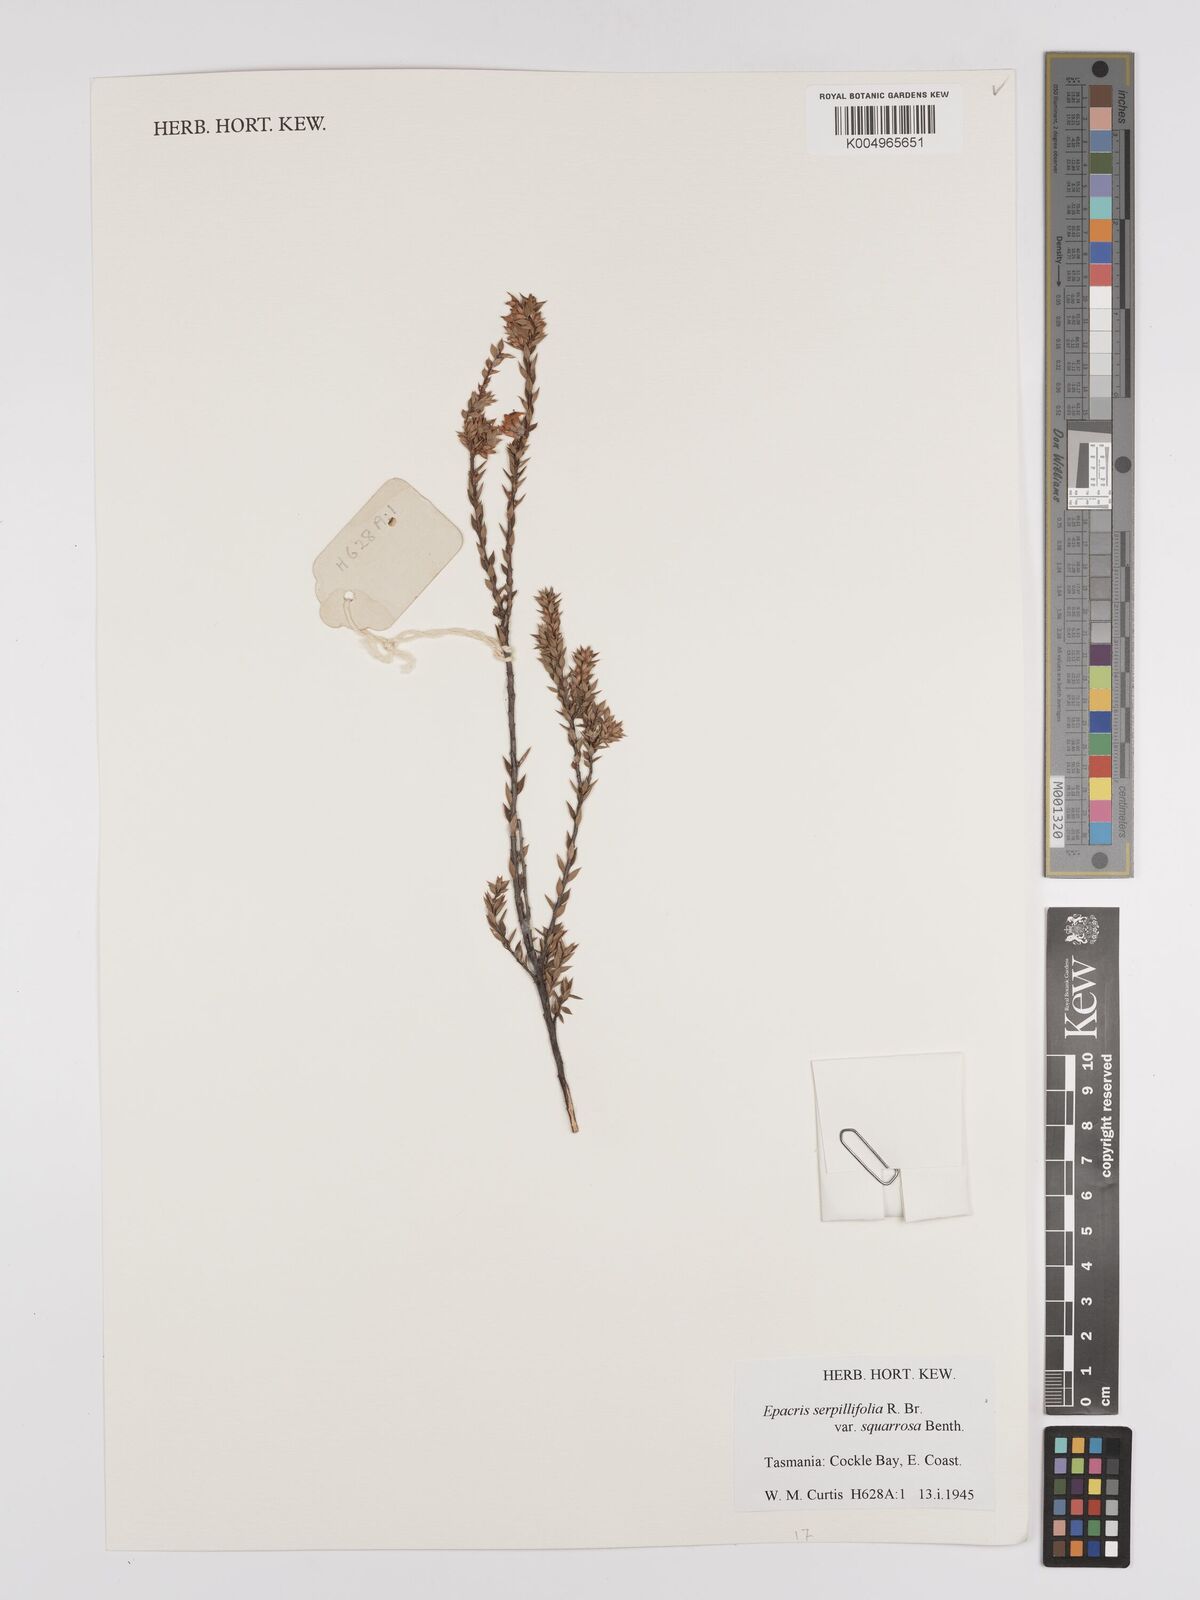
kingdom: Plantae
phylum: Tracheophyta
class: Magnoliopsida
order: Ericales
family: Ericaceae
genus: Epacris
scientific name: Epacris tasmanica
